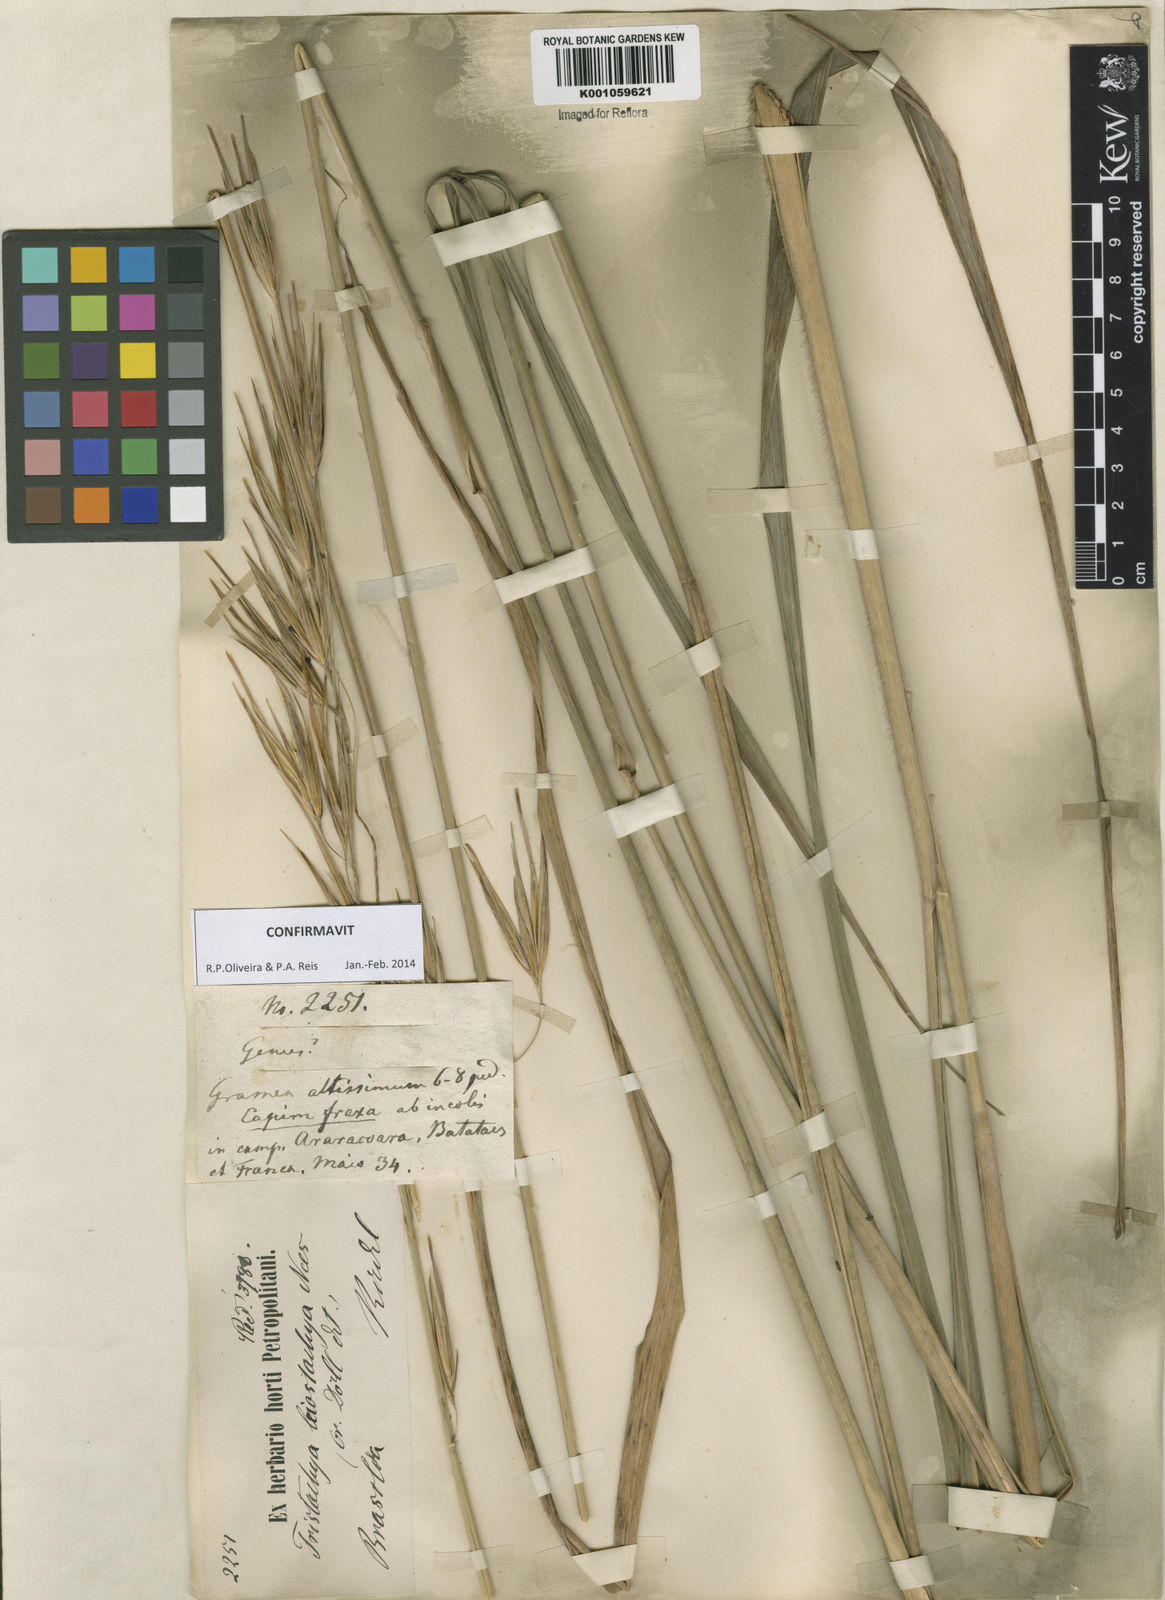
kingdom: Plantae
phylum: Tracheophyta
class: Liliopsida
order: Poales
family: Poaceae
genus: Tristachya
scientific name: Tristachya leiostachya
